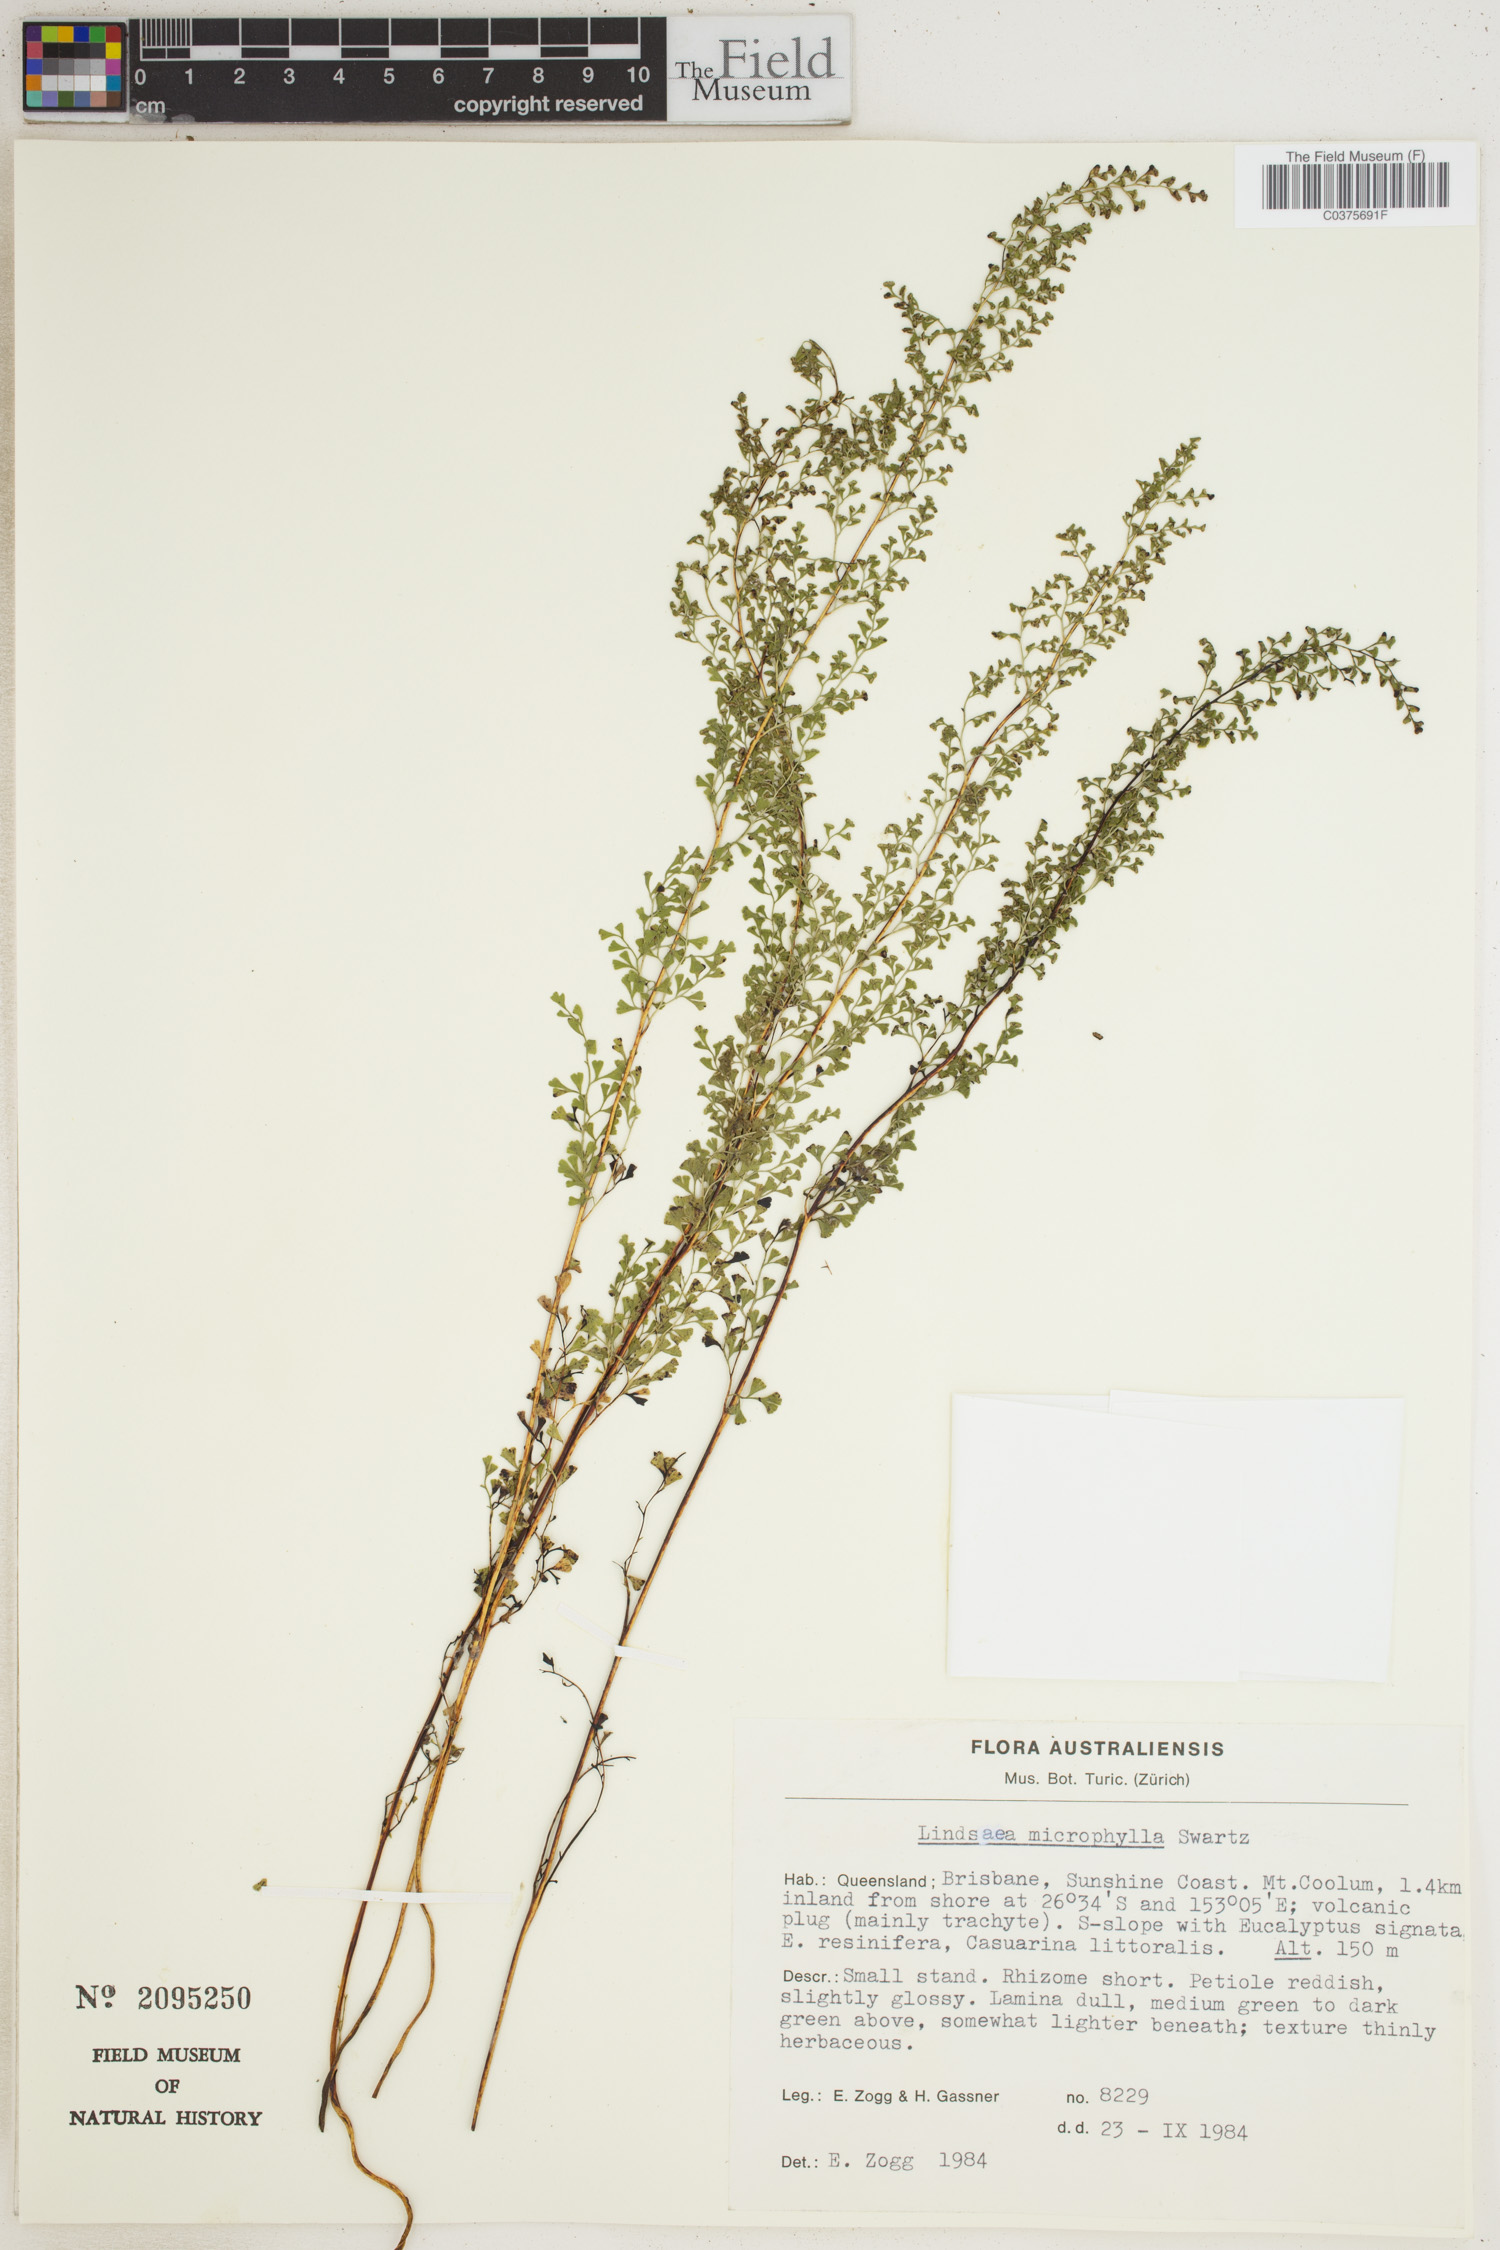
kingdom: Plantae
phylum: Tracheophyta
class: Polypodiopsida
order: Polypodiales
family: Lindsaeaceae
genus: Lindsaea
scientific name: Lindsaea stricta
